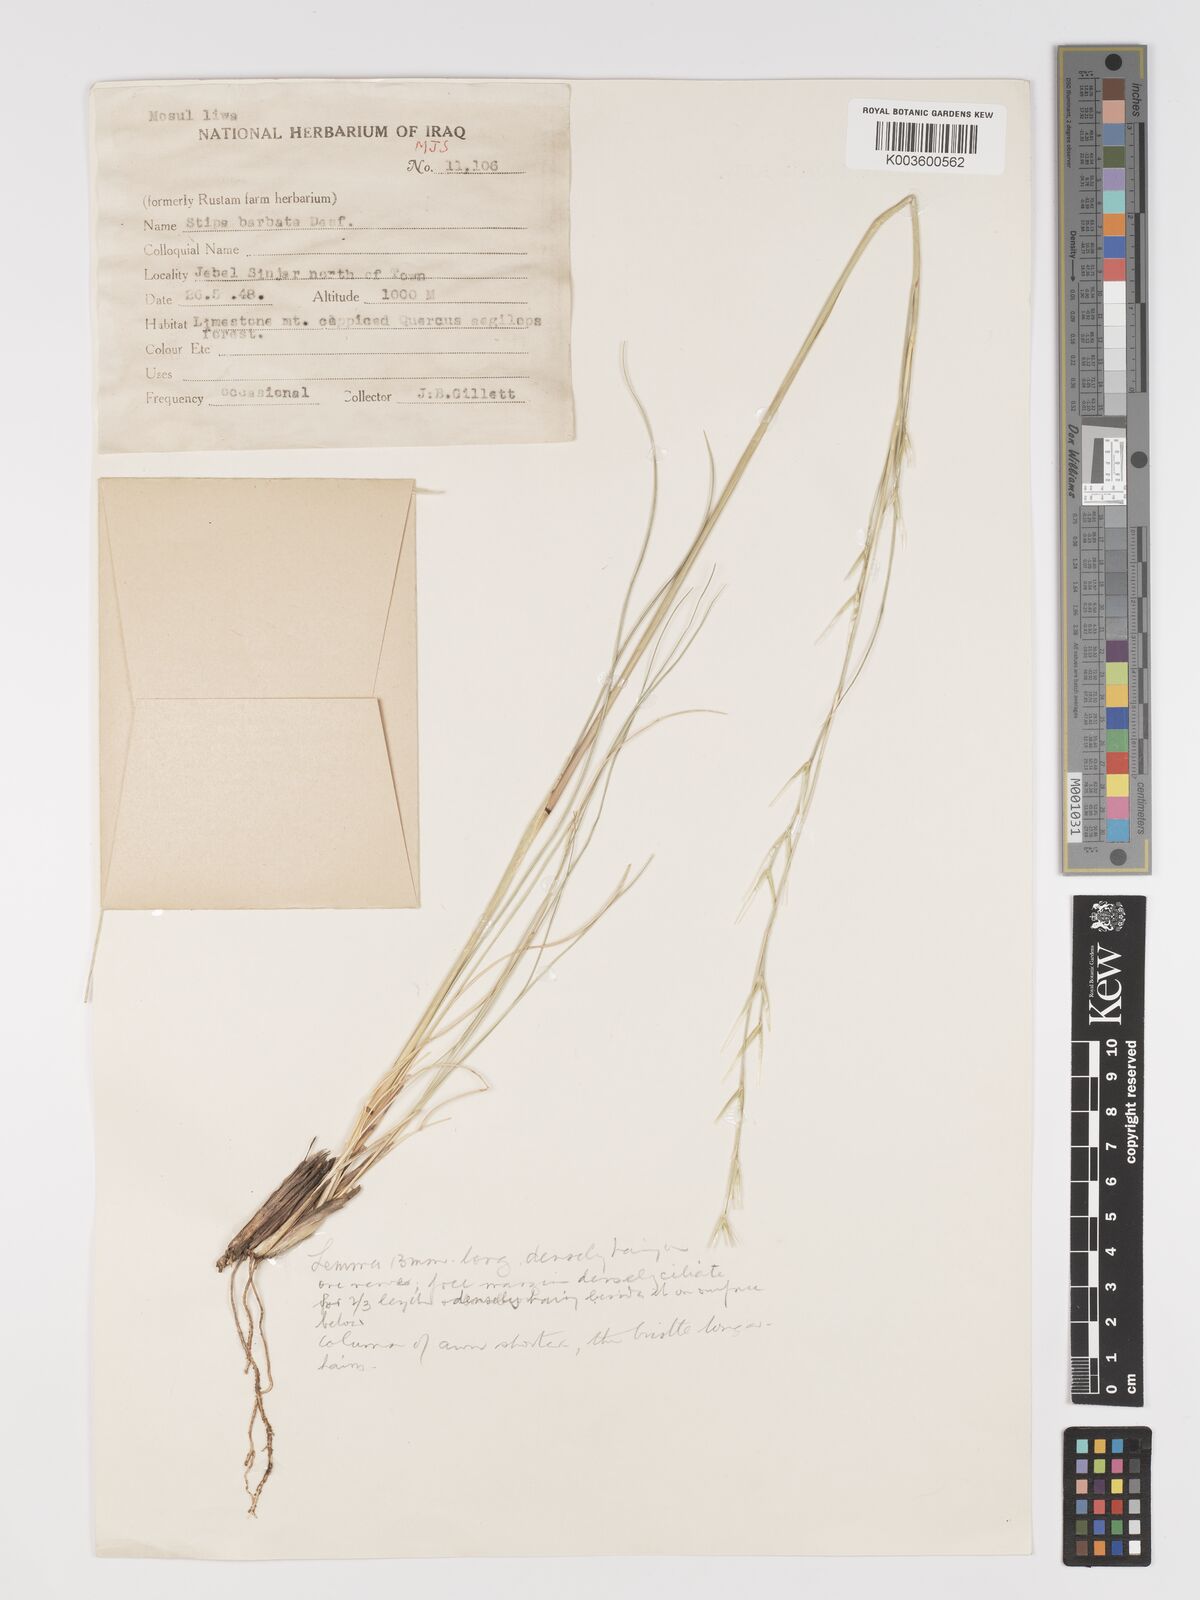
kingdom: Plantae
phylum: Tracheophyta
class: Liliopsida
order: Poales
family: Poaceae
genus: Stipa
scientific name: Stipa barbata
